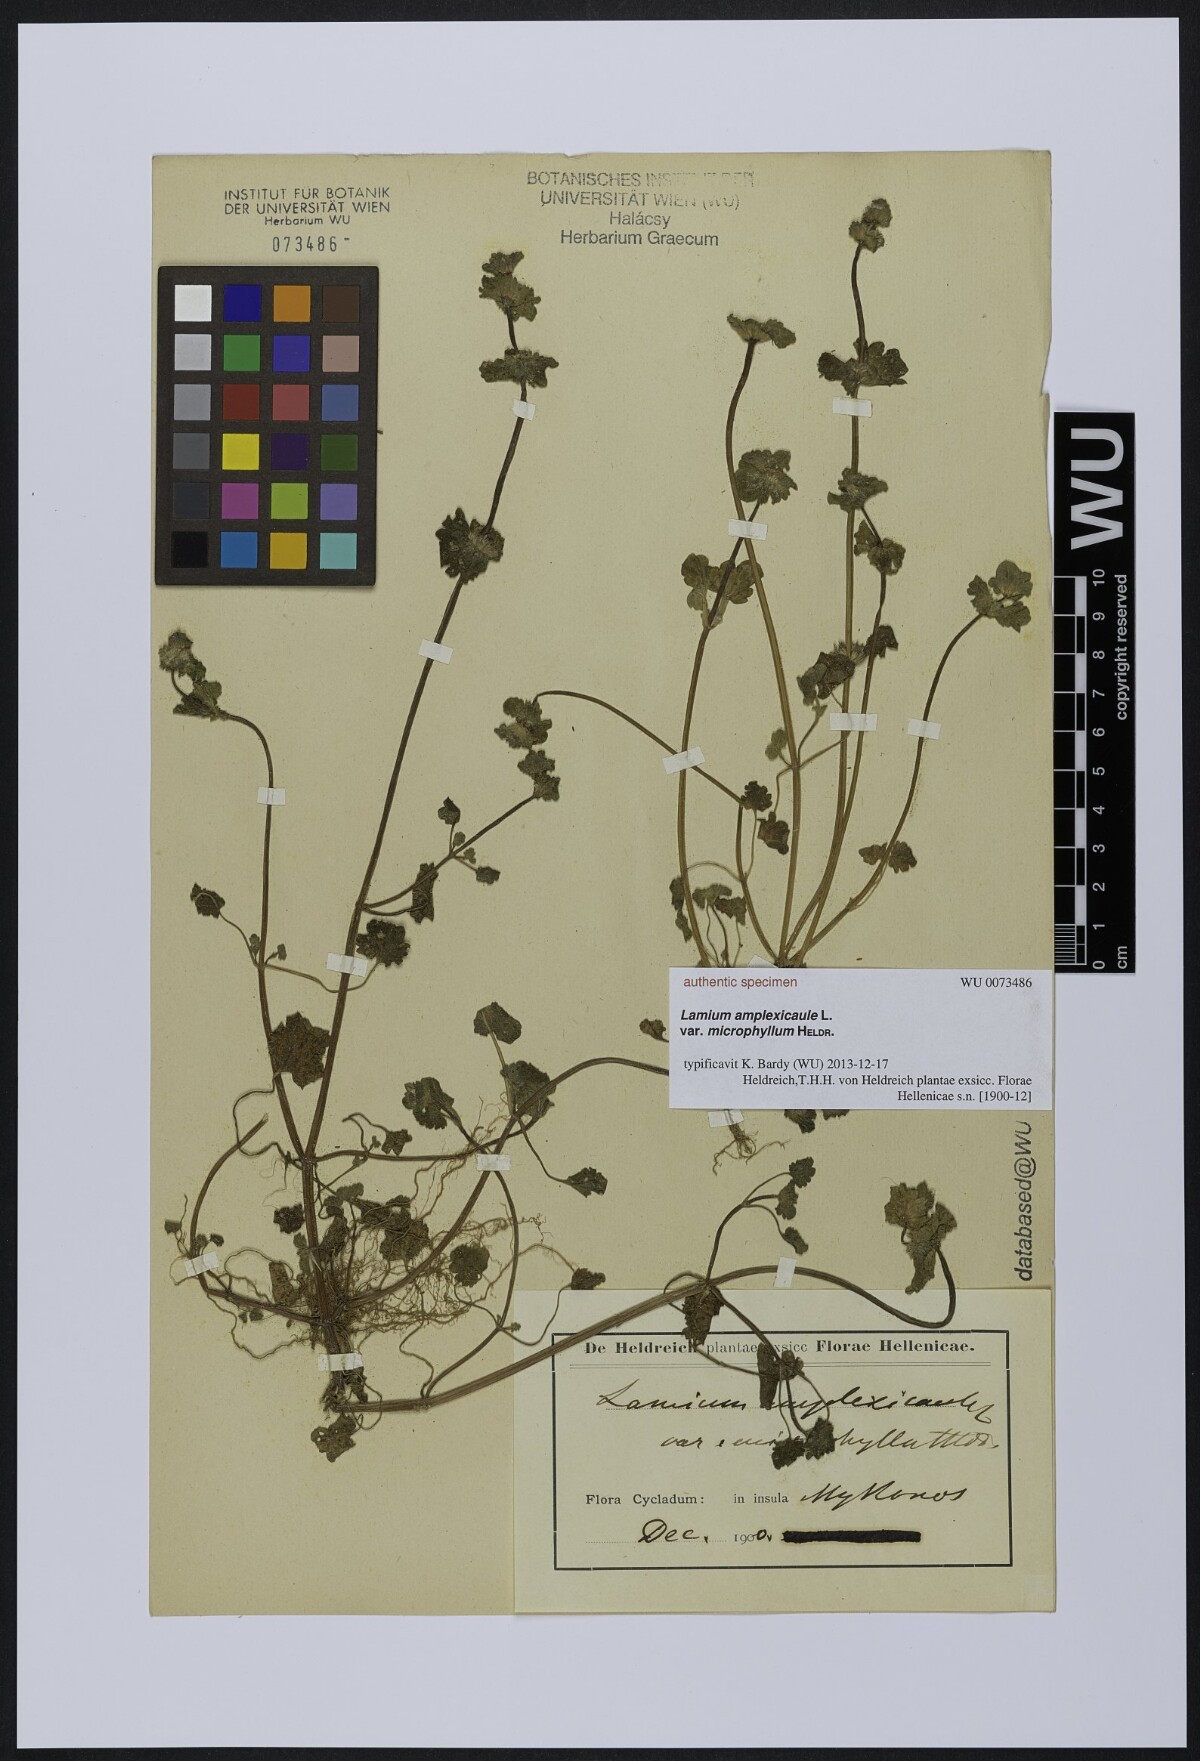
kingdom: Plantae
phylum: Tracheophyta
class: Magnoliopsida
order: Lamiales
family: Lamiaceae
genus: Lamium
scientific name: Lamium amplexicaule
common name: Henbit dead-nettle
